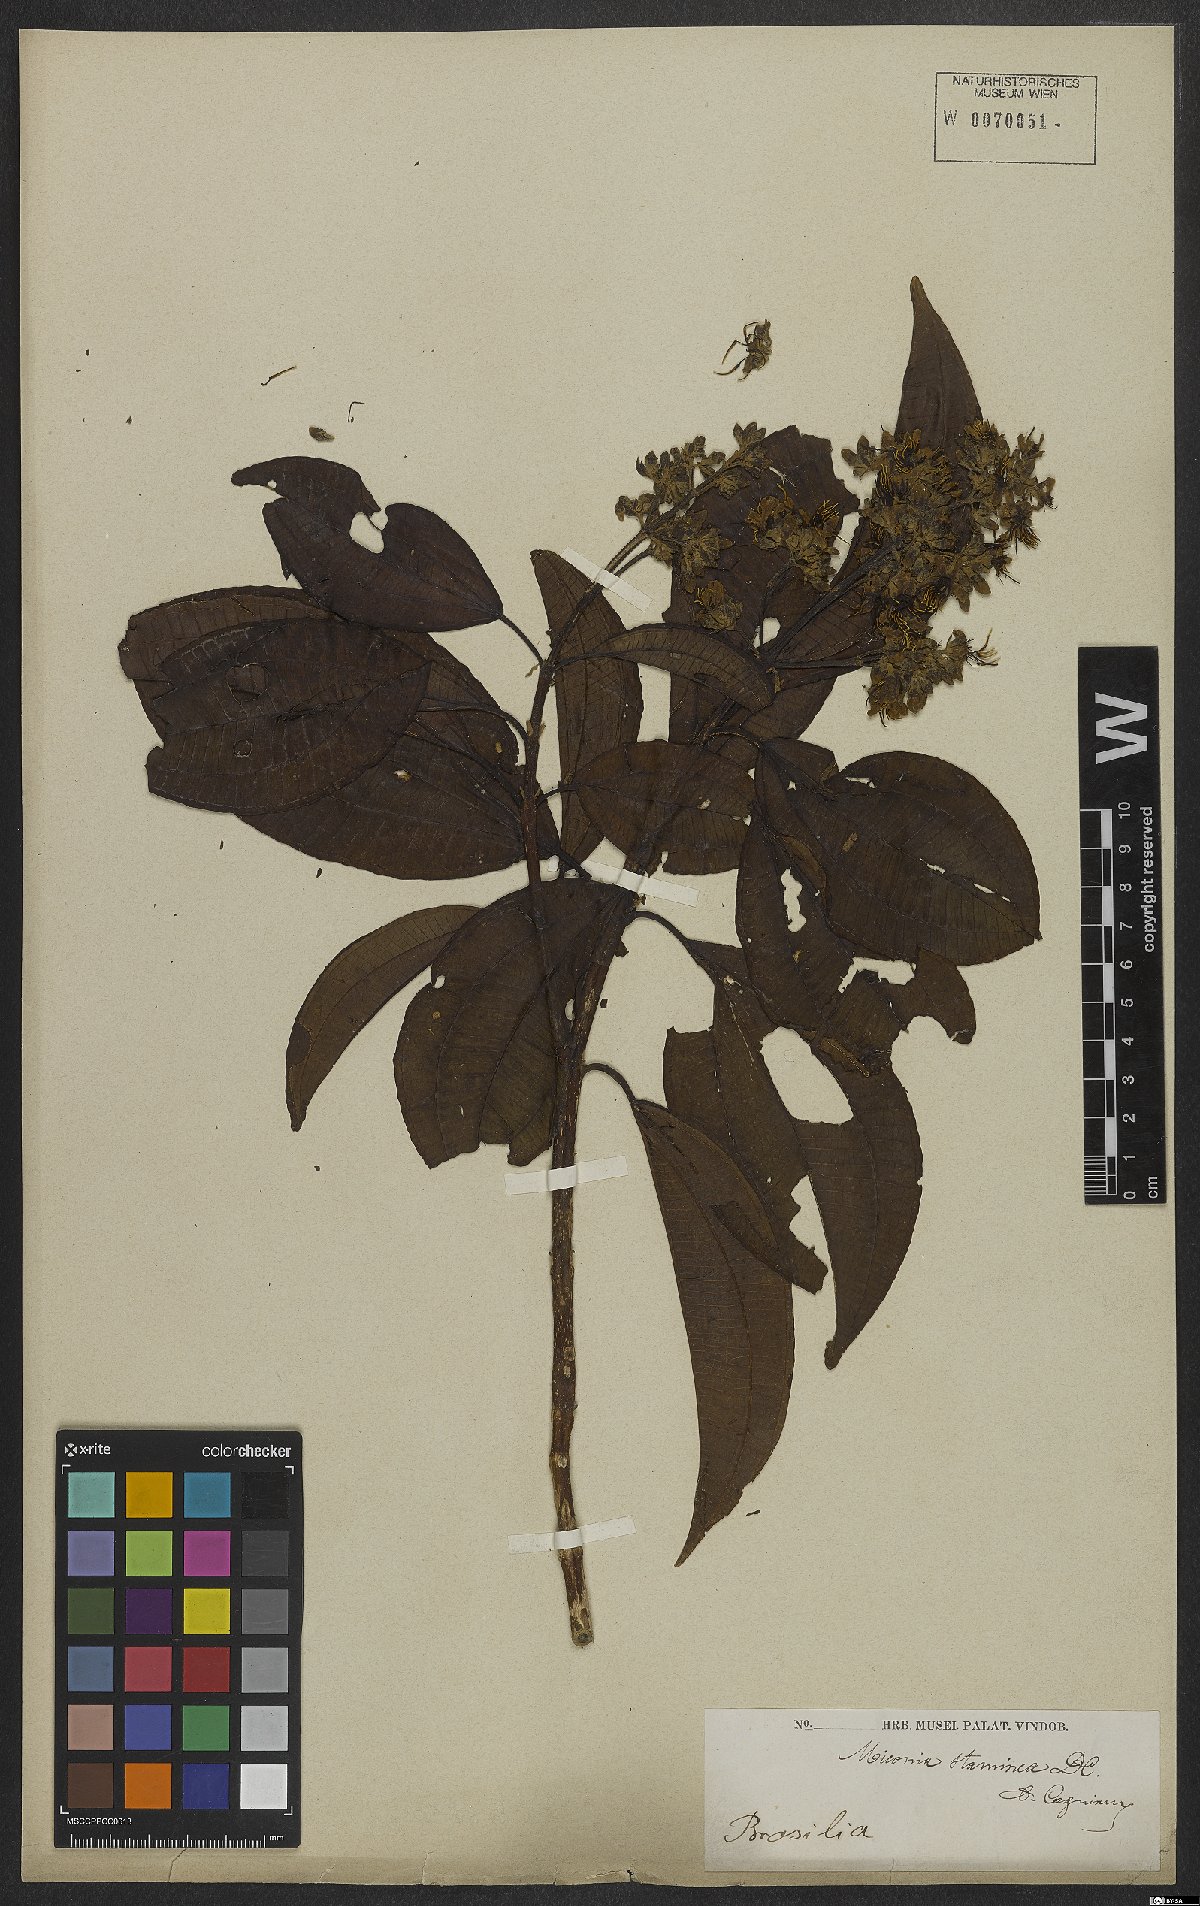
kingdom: Plantae
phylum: Tracheophyta
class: Magnoliopsida
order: Myrtales
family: Melastomataceae
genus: Miconia
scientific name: Miconia staminea
